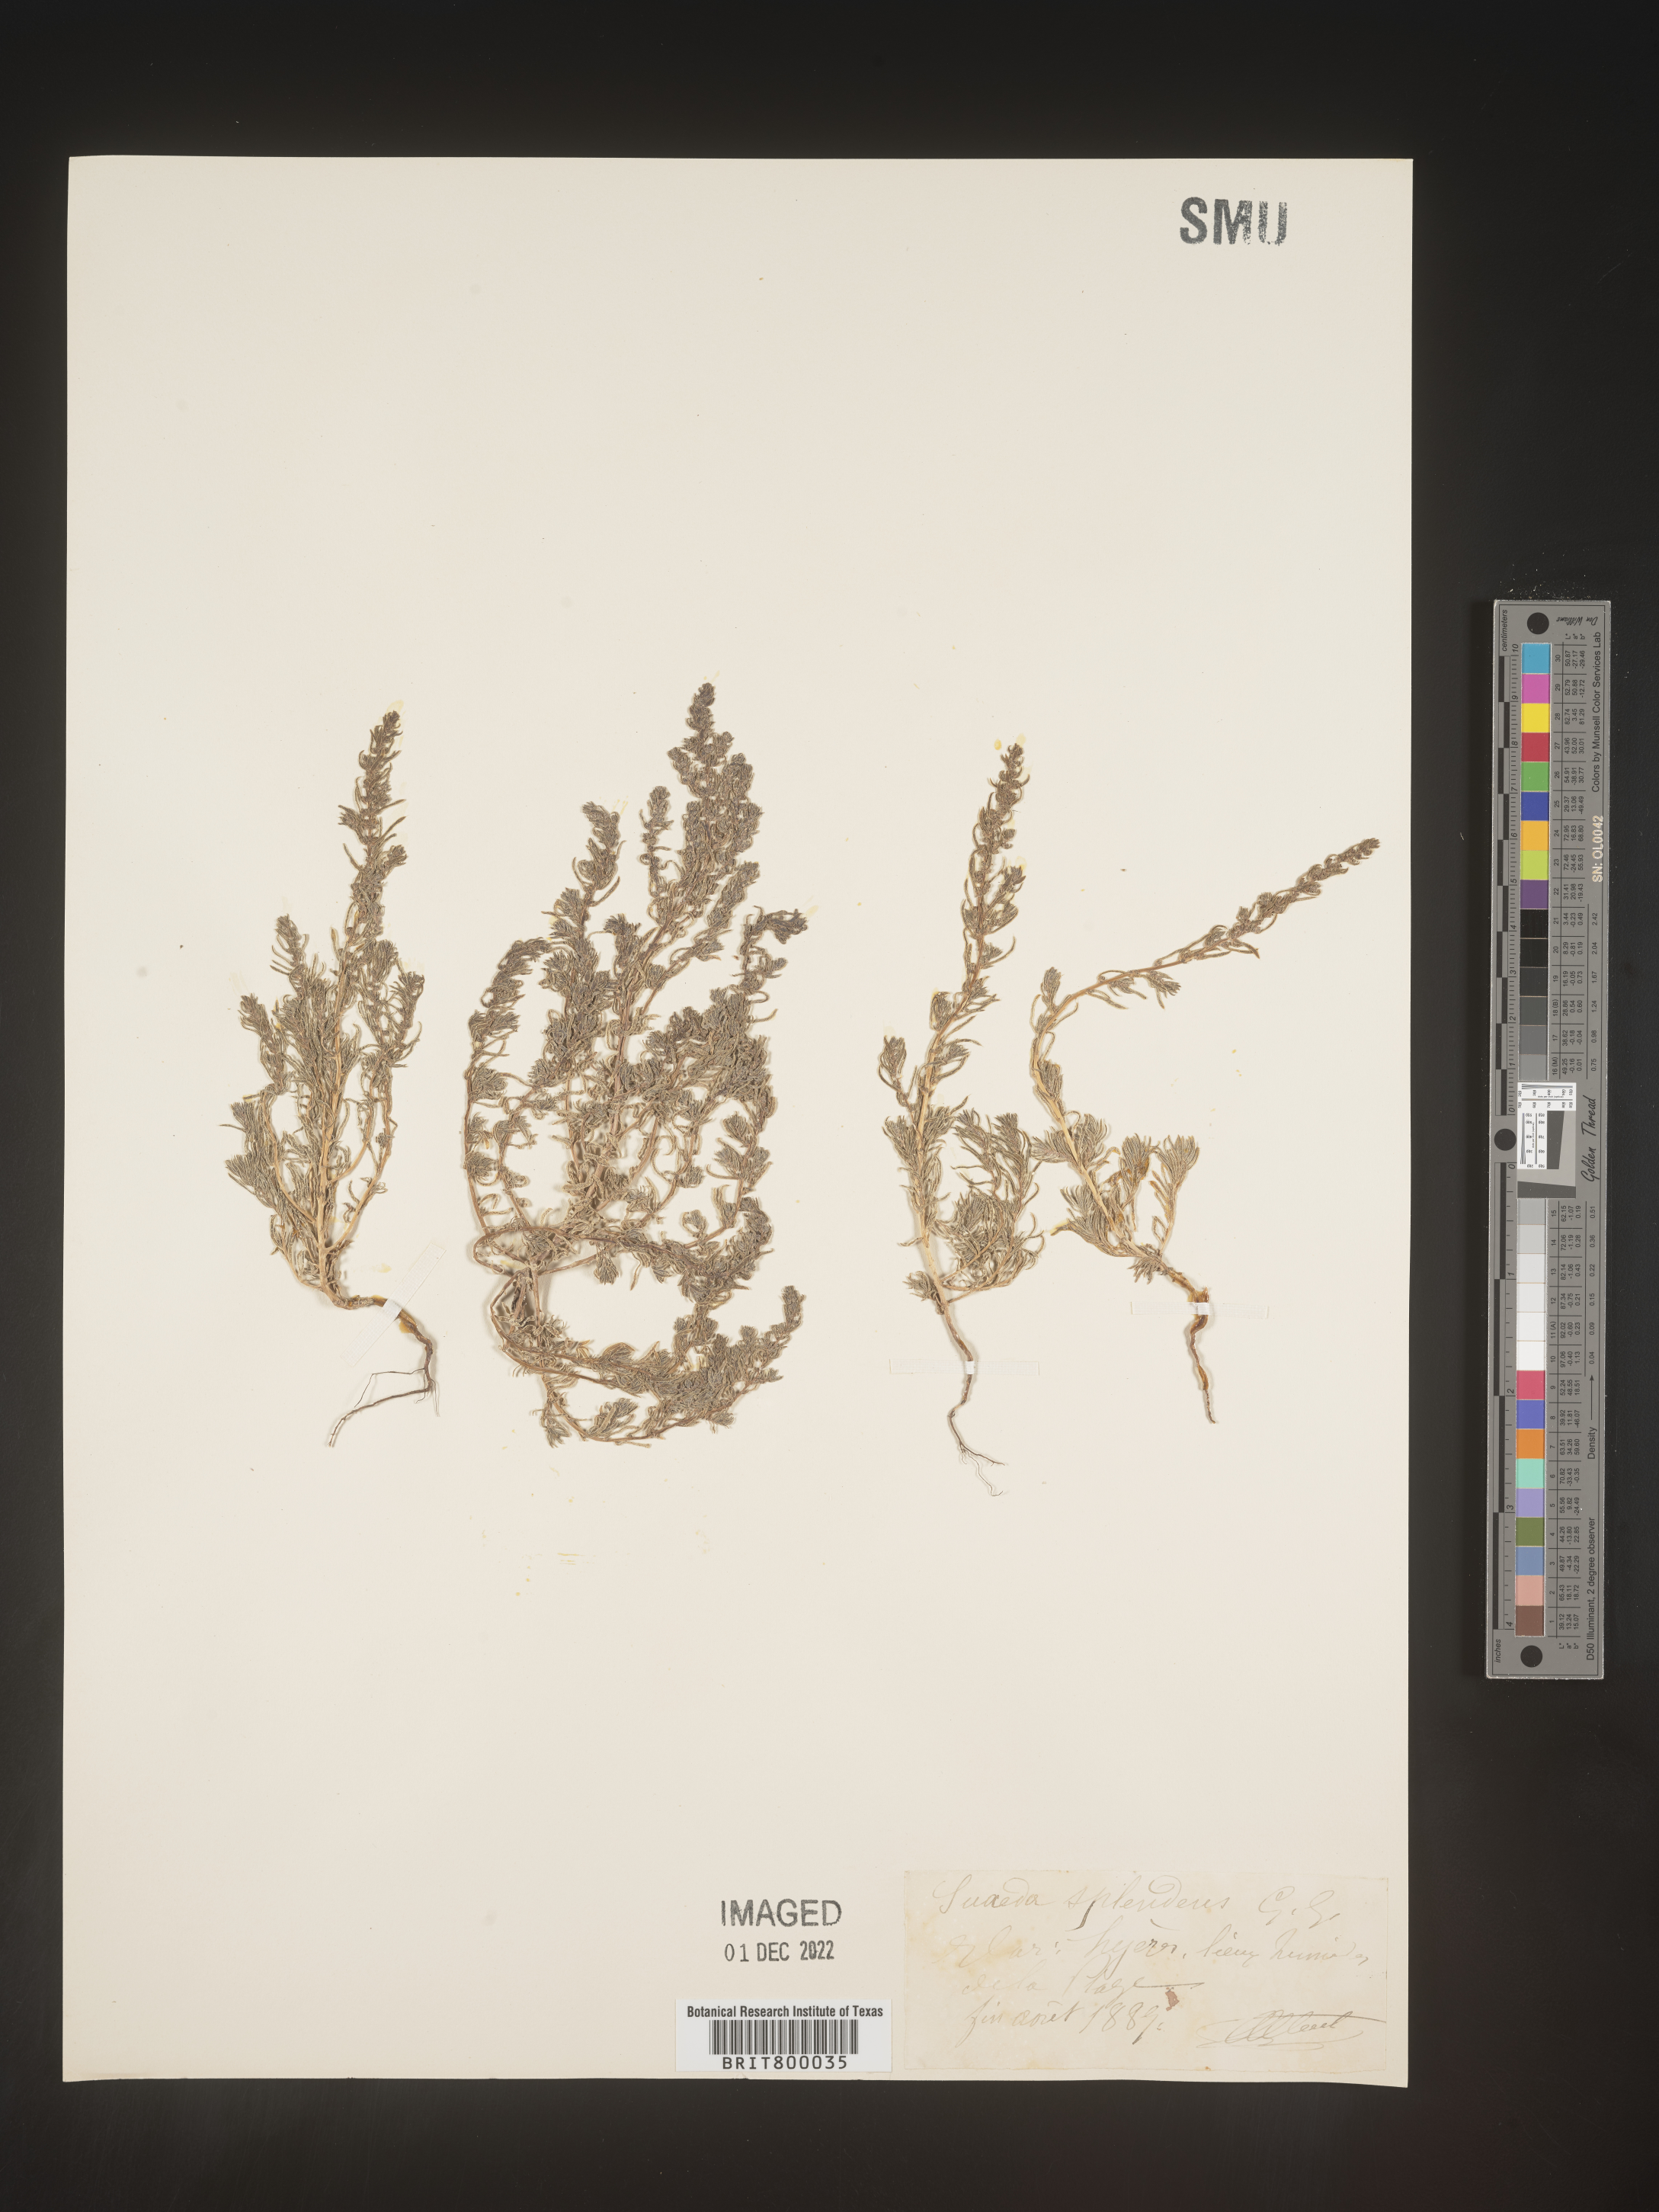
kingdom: Plantae
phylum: Tracheophyta
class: Magnoliopsida
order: Caryophyllales
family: Amaranthaceae
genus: Suaeda
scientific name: Suaeda
